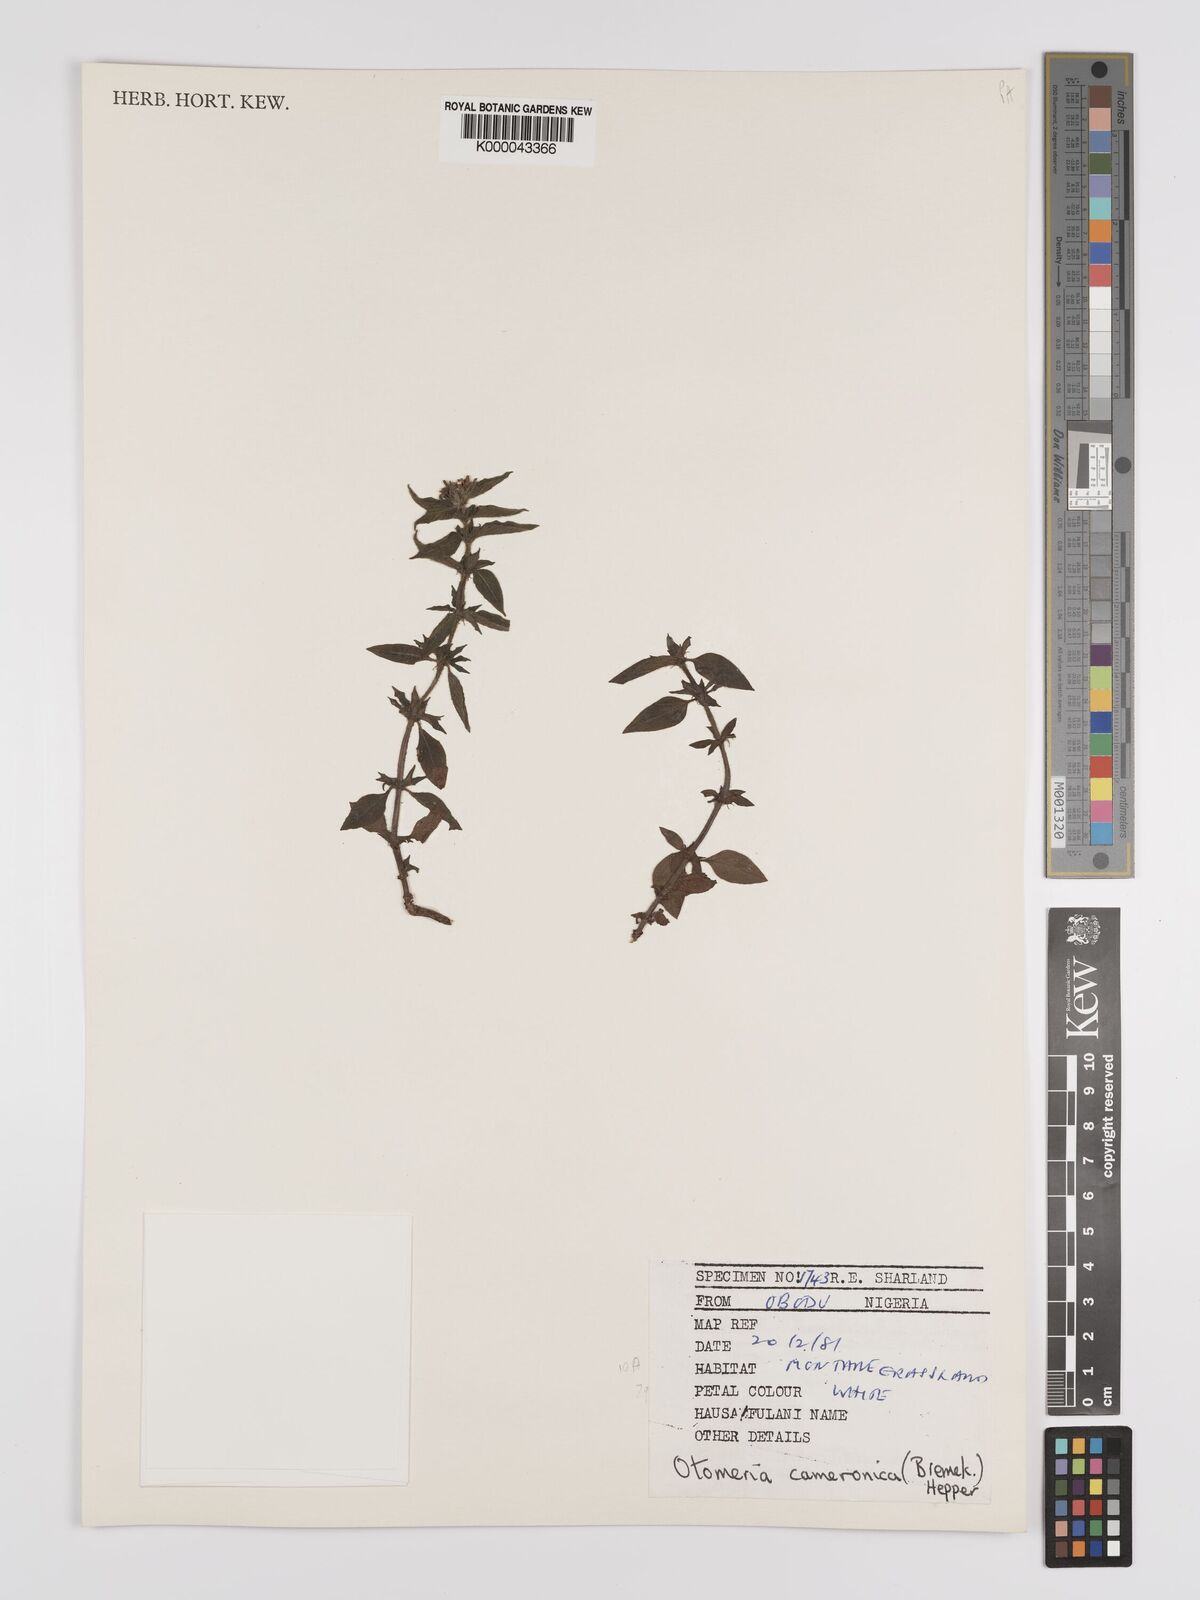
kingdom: Plantae
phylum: Tracheophyta
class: Magnoliopsida
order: Gentianales
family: Rubiaceae
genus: Otomeria
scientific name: Otomeria cameronica
